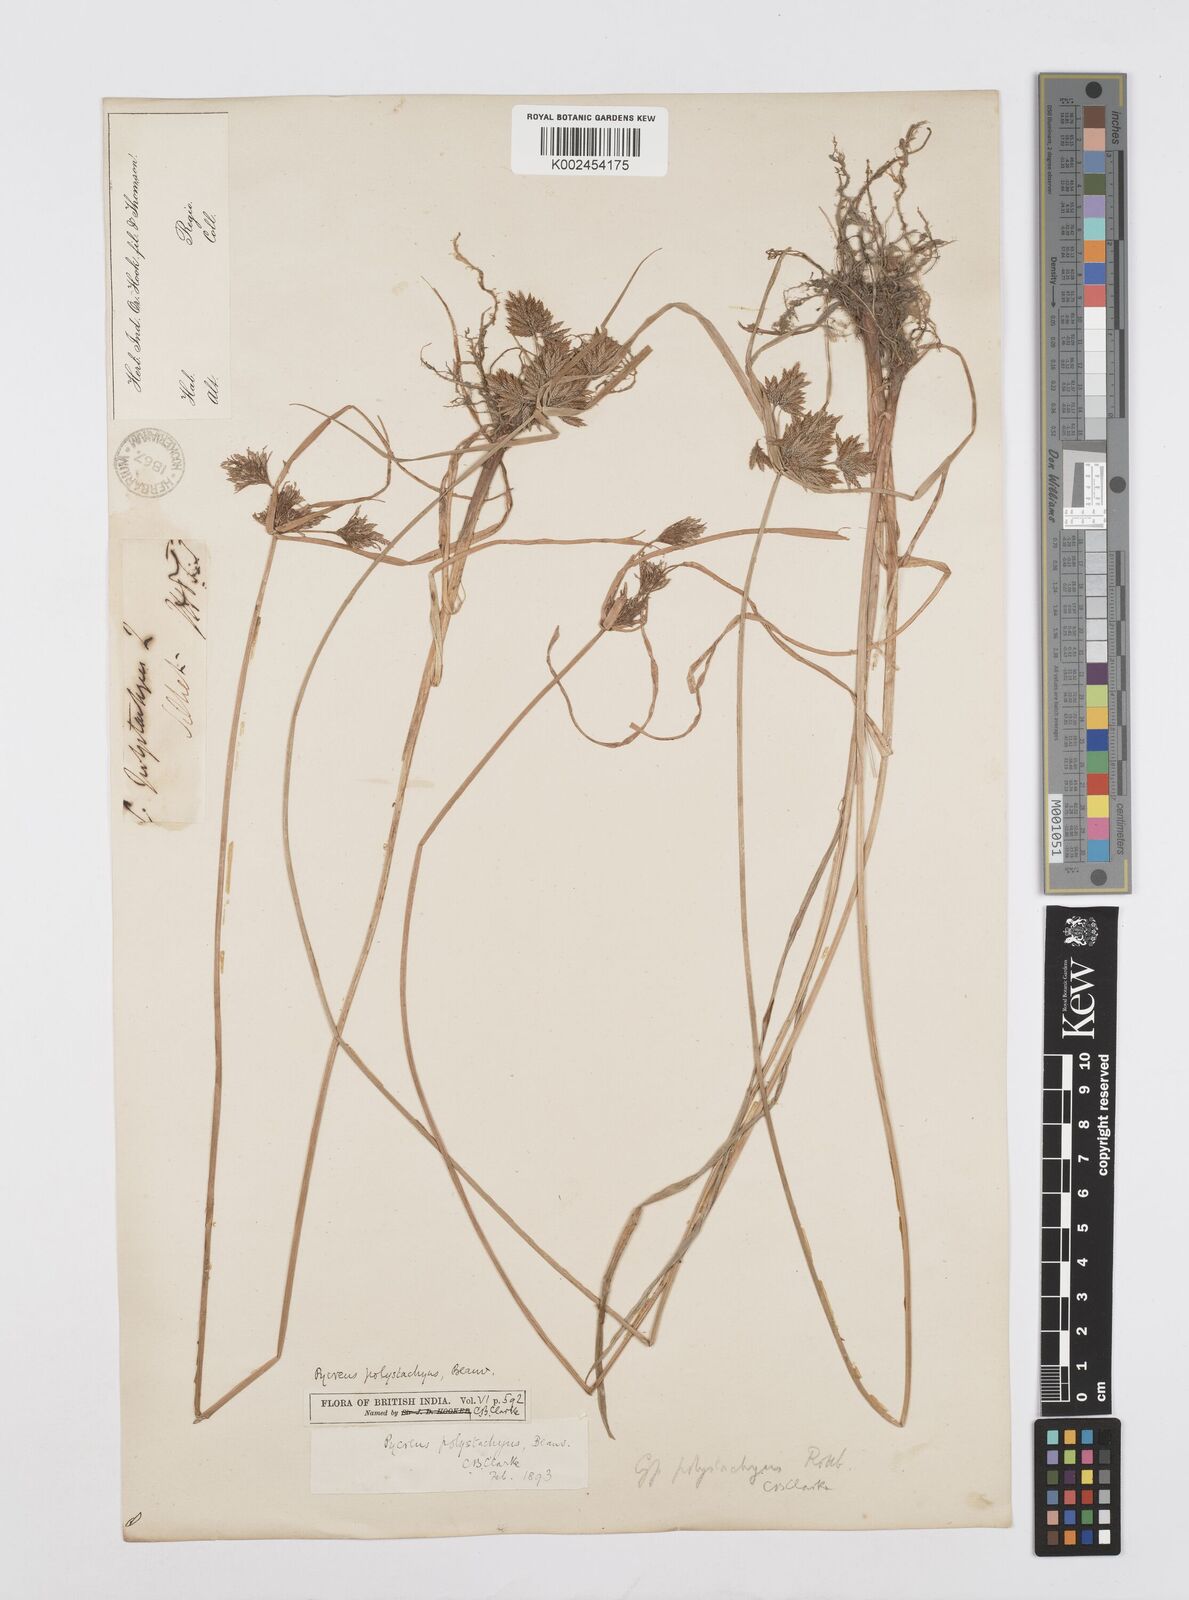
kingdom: Plantae
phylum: Tracheophyta
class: Liliopsida
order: Poales
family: Cyperaceae
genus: Cyperus
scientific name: Cyperus polystachyos
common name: Bunchy flat sedge
